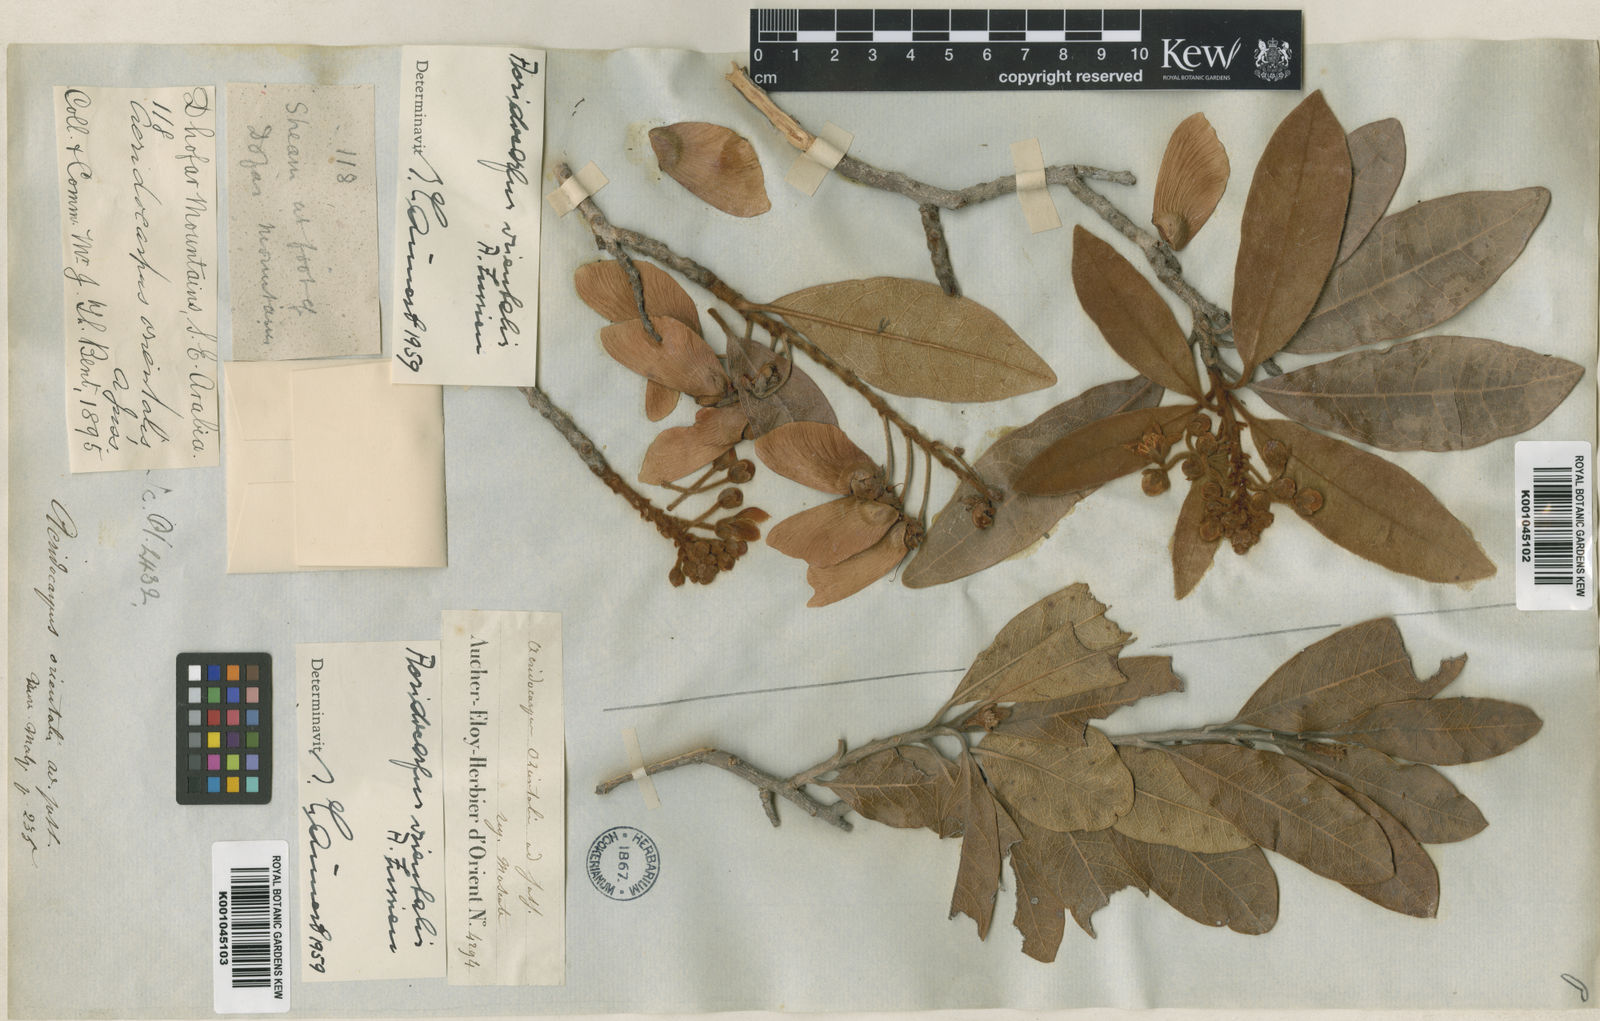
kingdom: Plantae
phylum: Tracheophyta
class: Magnoliopsida
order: Malpighiales
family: Malpighiaceae
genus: Acridocarpus
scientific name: Acridocarpus orientalis
